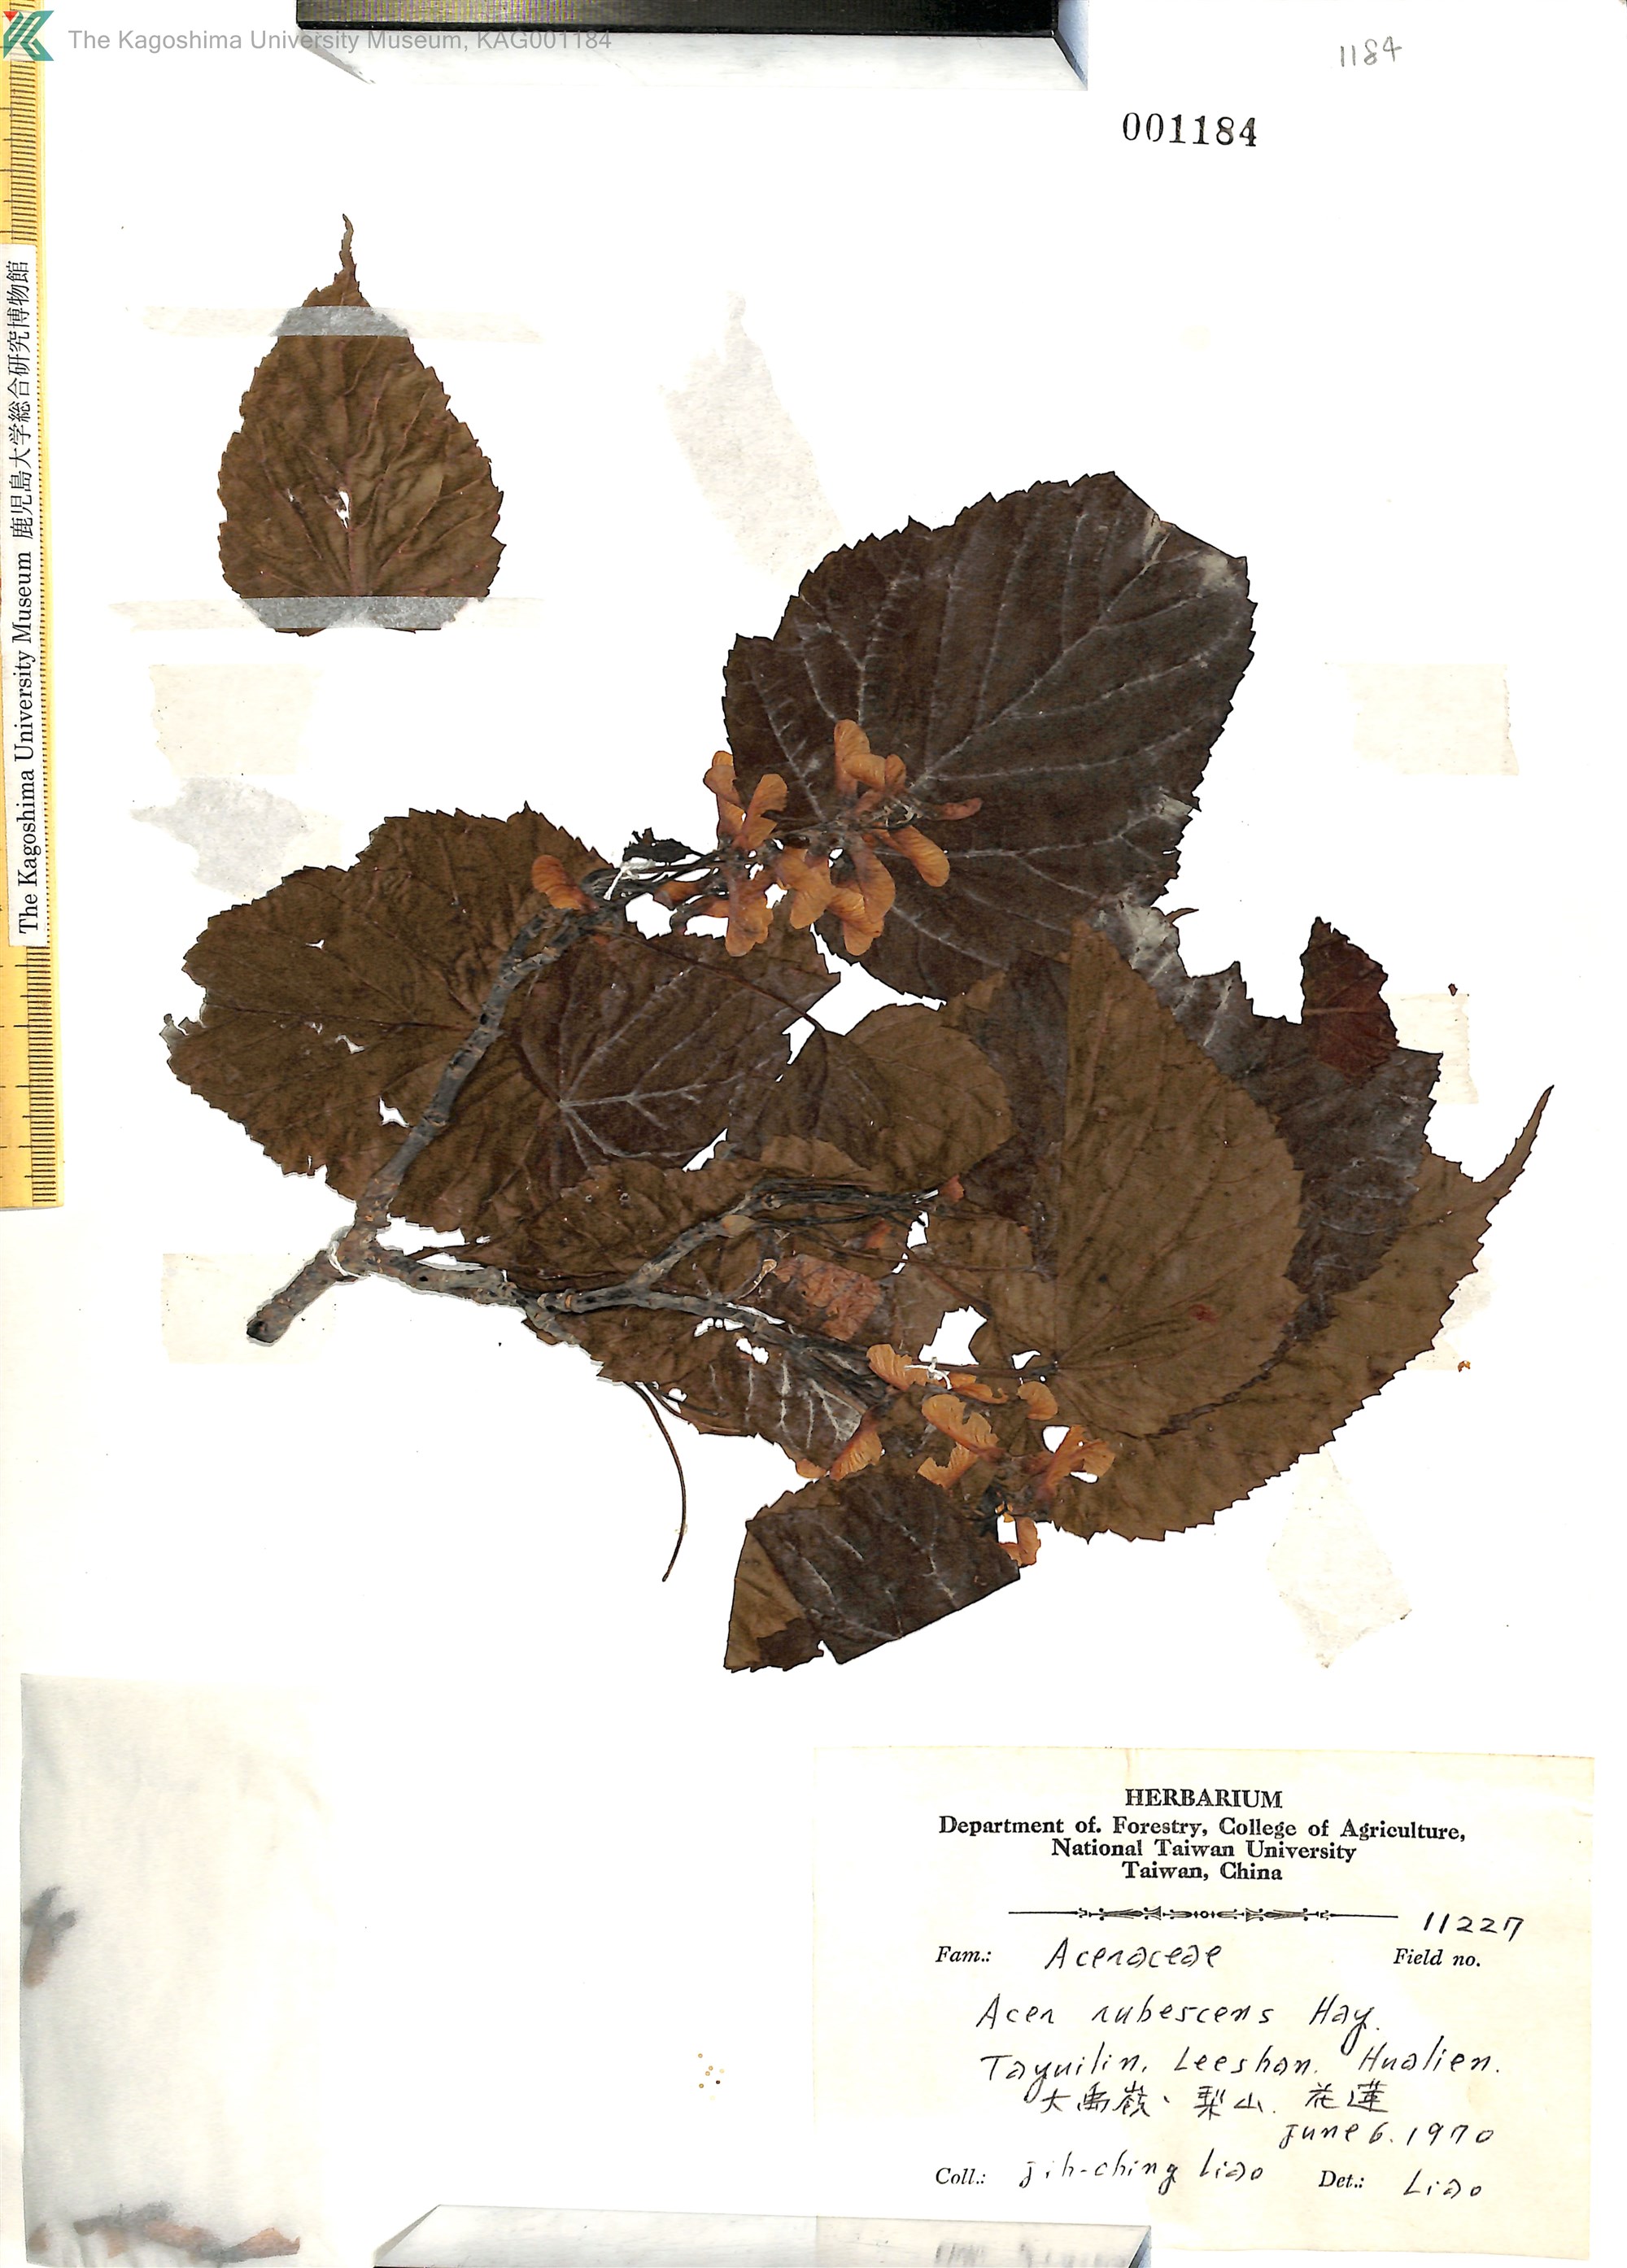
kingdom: Plantae
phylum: Tracheophyta
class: Magnoliopsida
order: Sapindales
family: Sapindaceae
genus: Acer
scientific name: Acer caudatifolium
